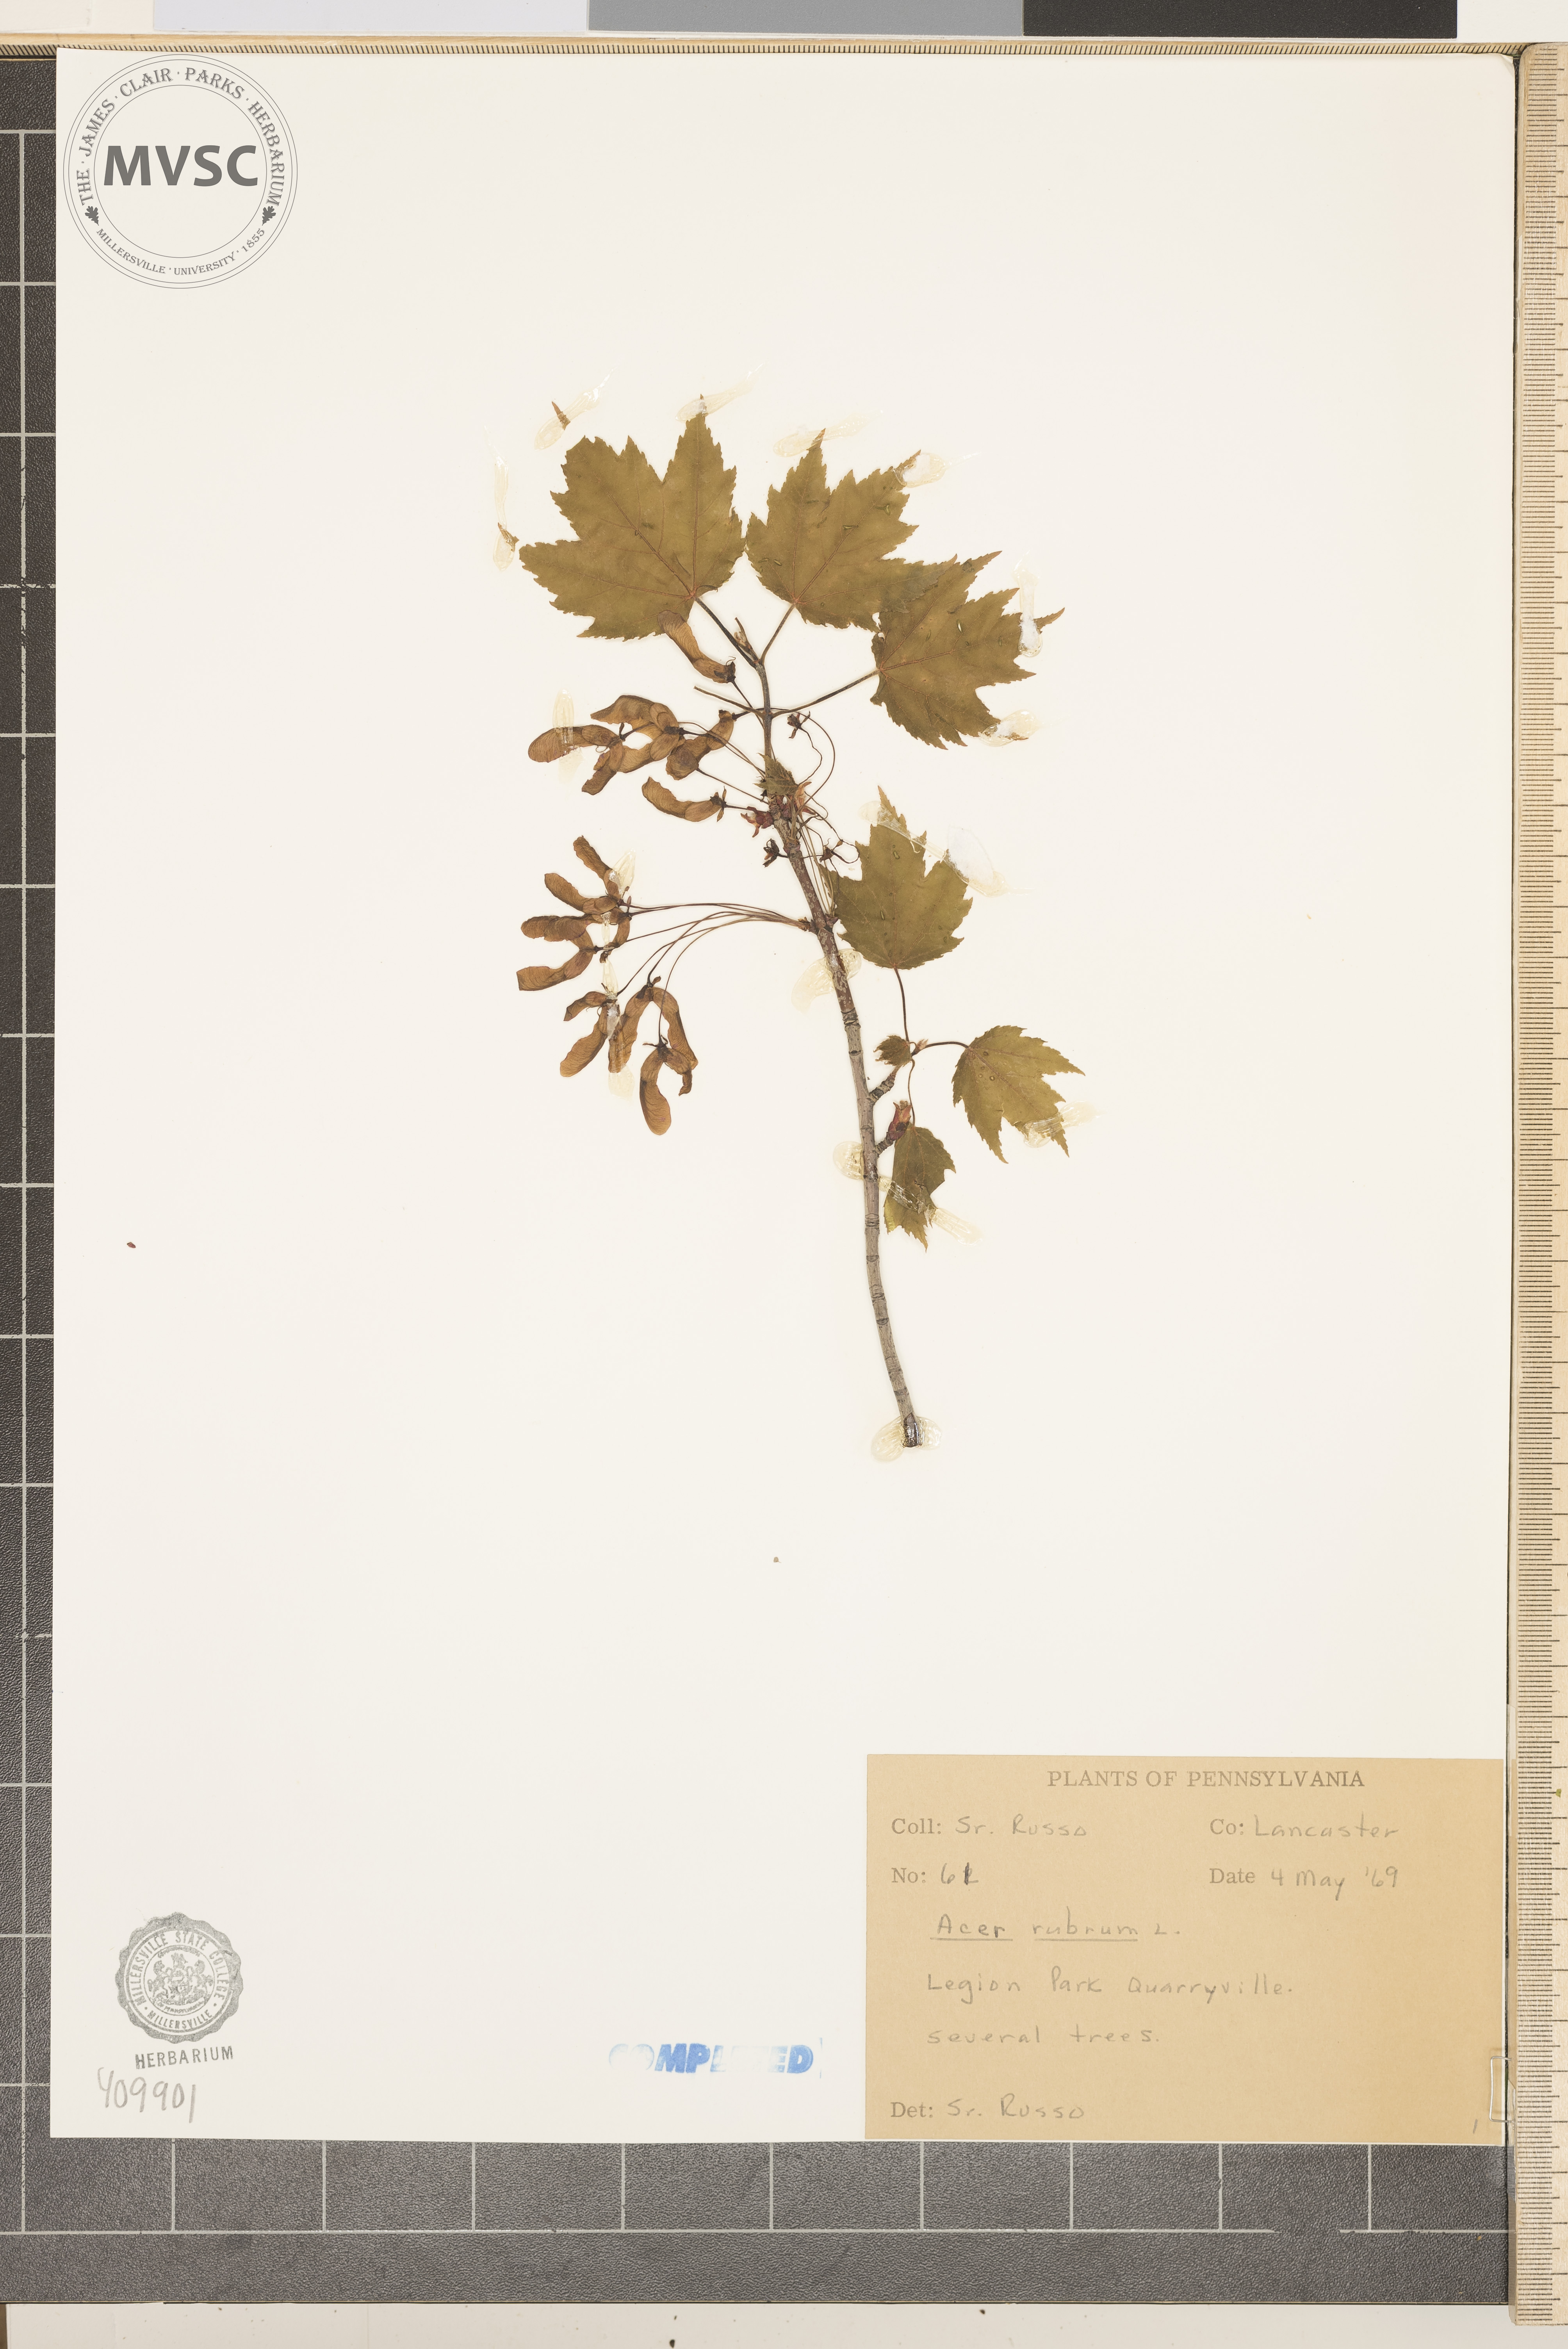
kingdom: Plantae
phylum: Tracheophyta
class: Magnoliopsida
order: Sapindales
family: Sapindaceae
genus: Acer
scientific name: Acer rubrum
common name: Red maple
